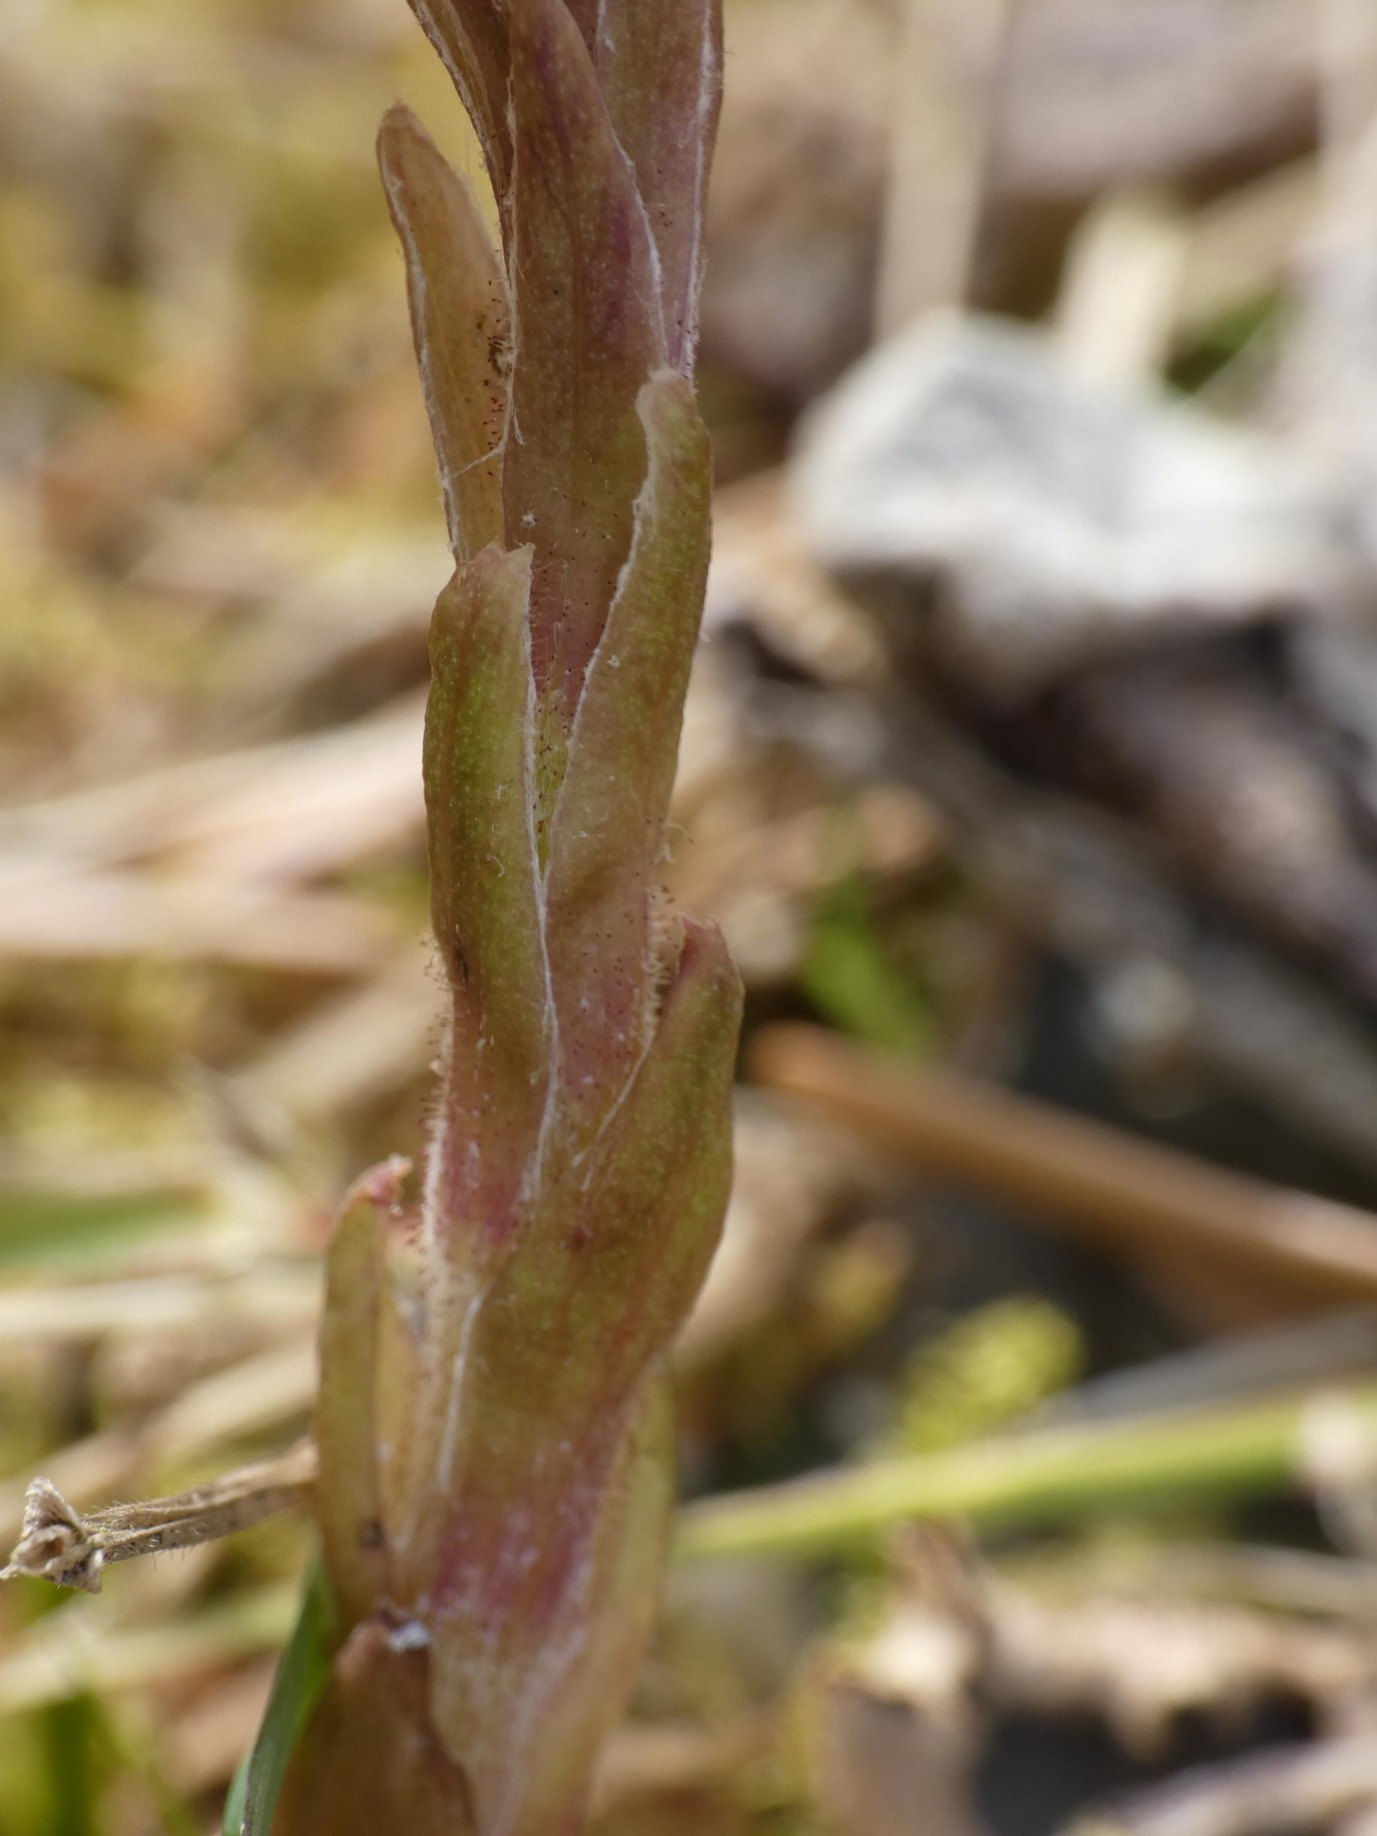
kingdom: Plantae
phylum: Tracheophyta
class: Magnoliopsida
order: Asterales
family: Asteraceae
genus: Tussilago
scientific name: Tussilago farfara
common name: Følfod
